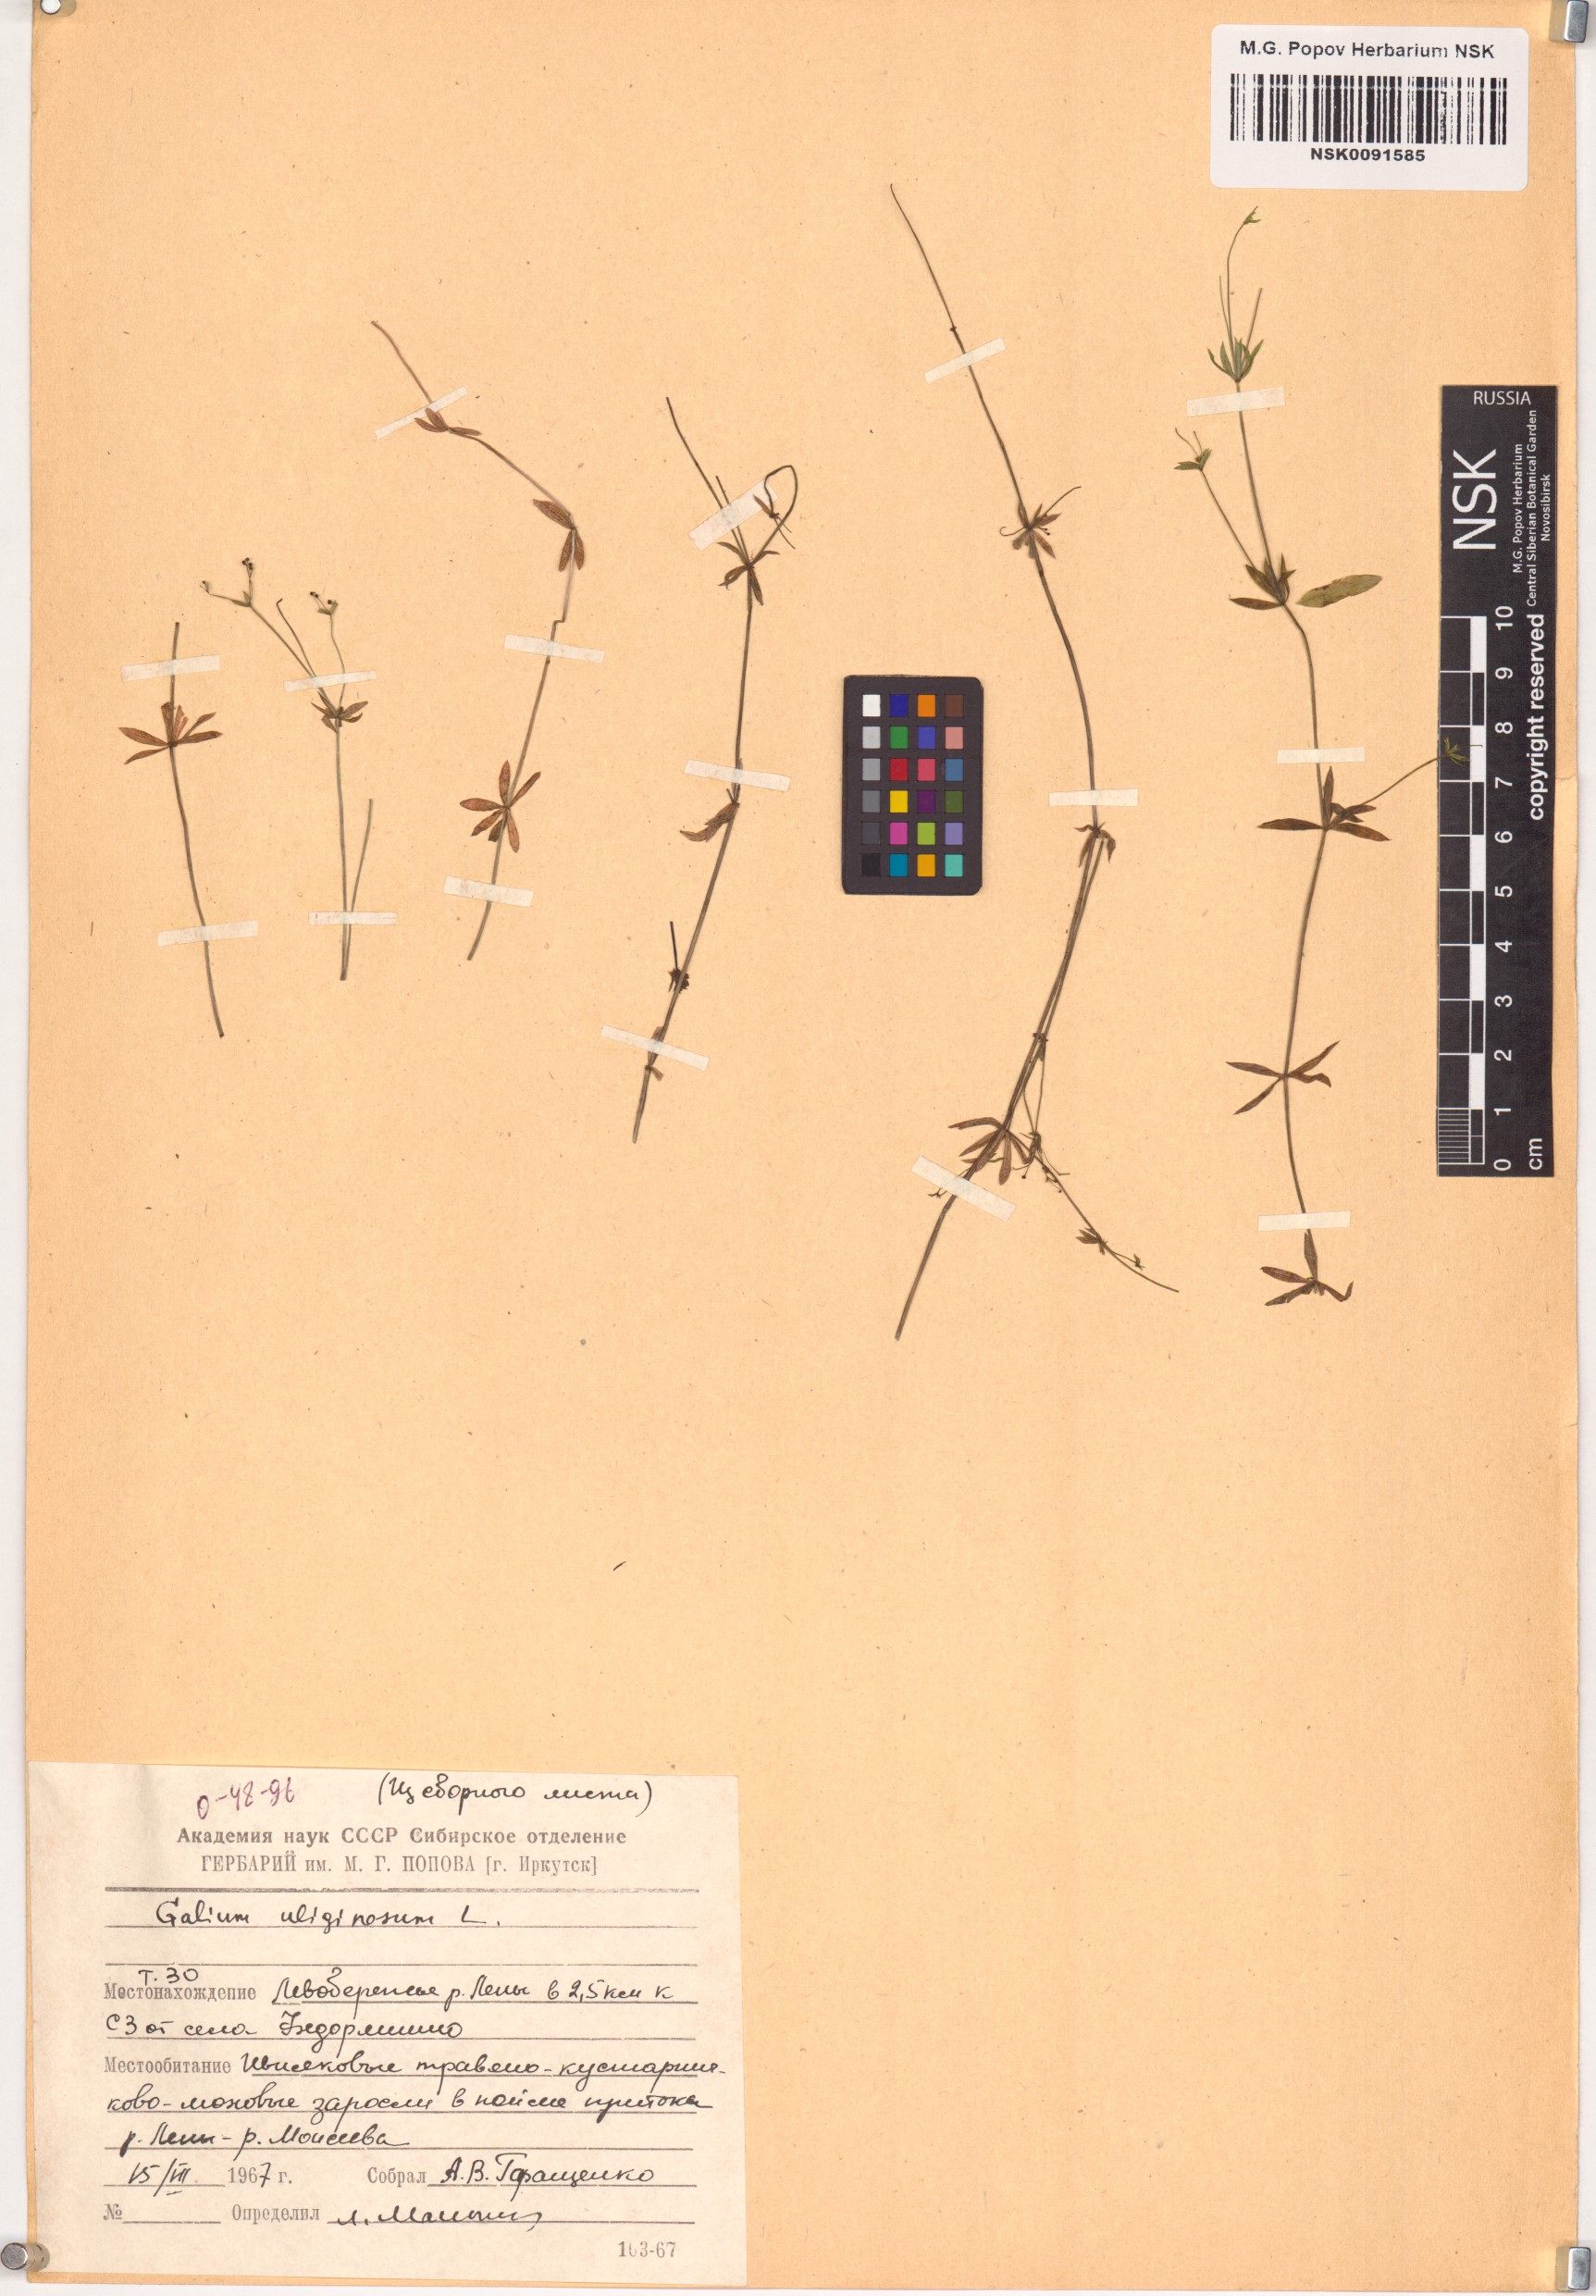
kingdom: Plantae
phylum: Tracheophyta
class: Magnoliopsida
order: Gentianales
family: Rubiaceae
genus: Galium
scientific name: Galium uliginosum
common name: Fen bedstraw
